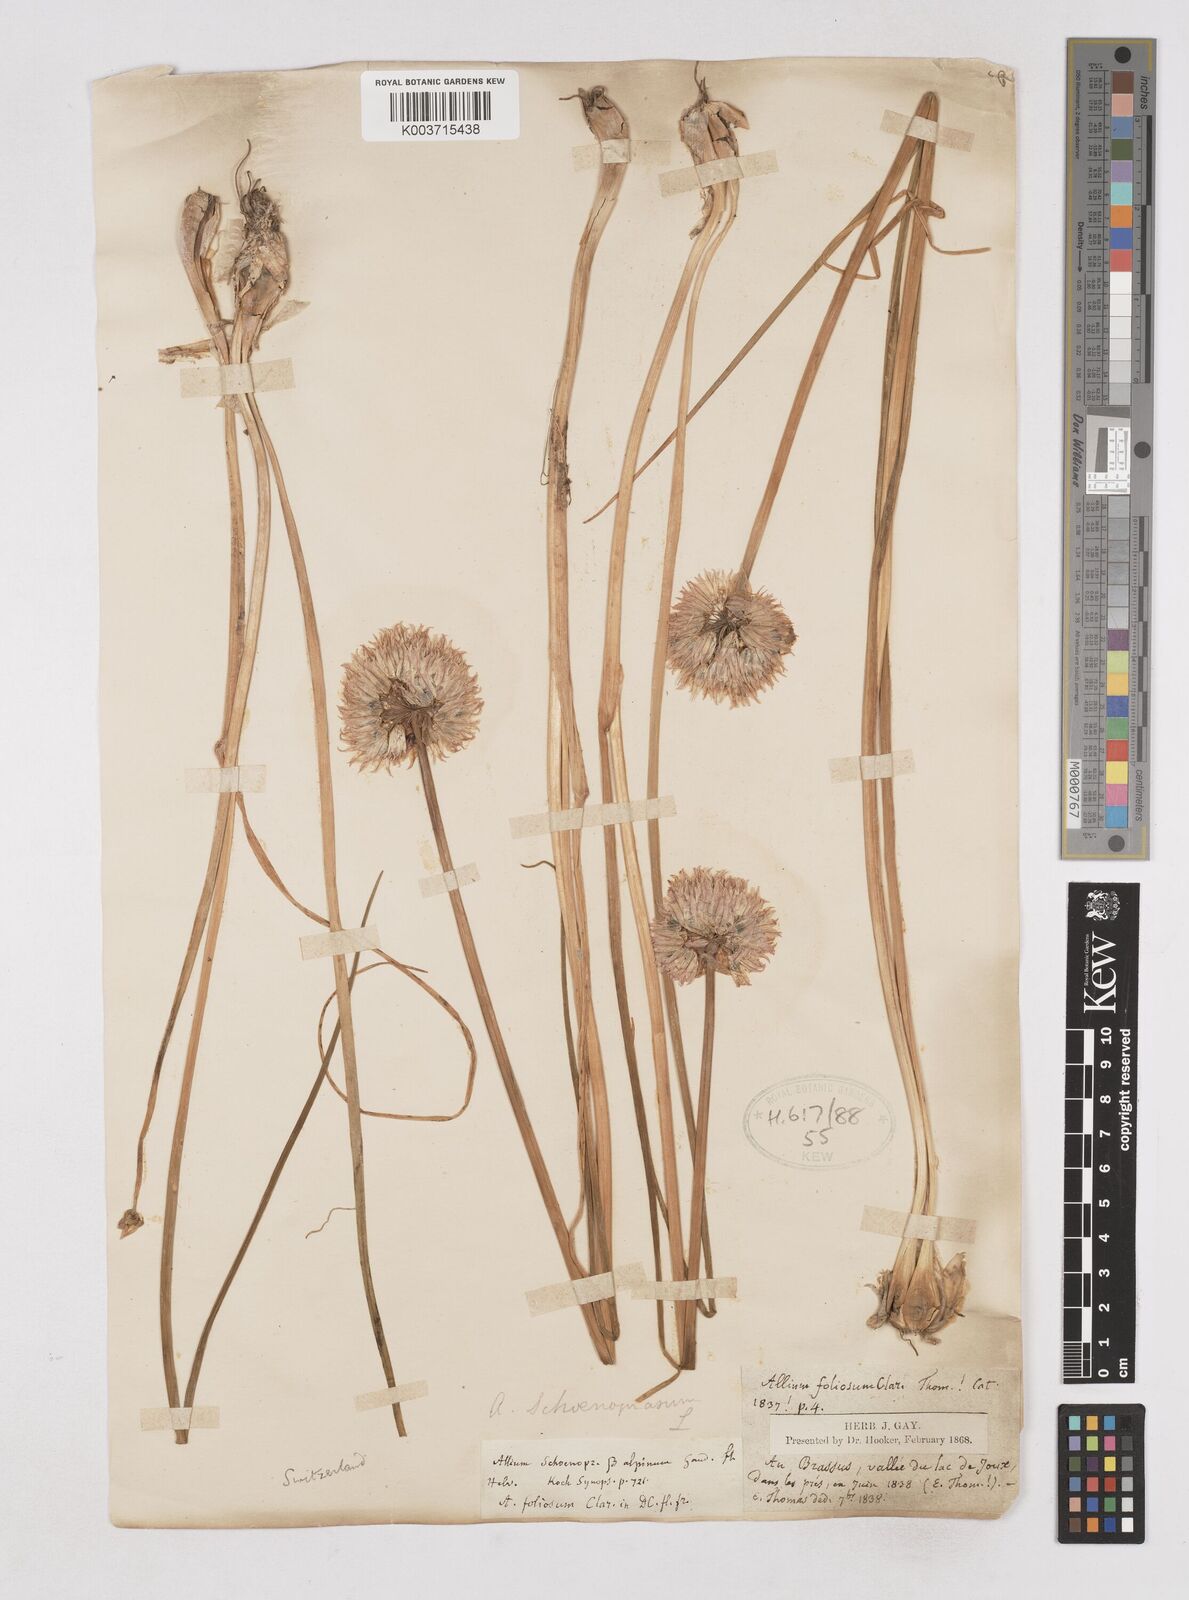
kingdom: Plantae
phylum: Tracheophyta
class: Liliopsida
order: Asparagales
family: Amaryllidaceae
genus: Allium
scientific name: Allium schoenoprasum
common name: Chives
